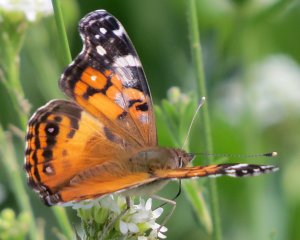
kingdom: Animalia
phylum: Arthropoda
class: Insecta
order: Lepidoptera
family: Nymphalidae
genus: Vanessa
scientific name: Vanessa virginiensis
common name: American Lady
